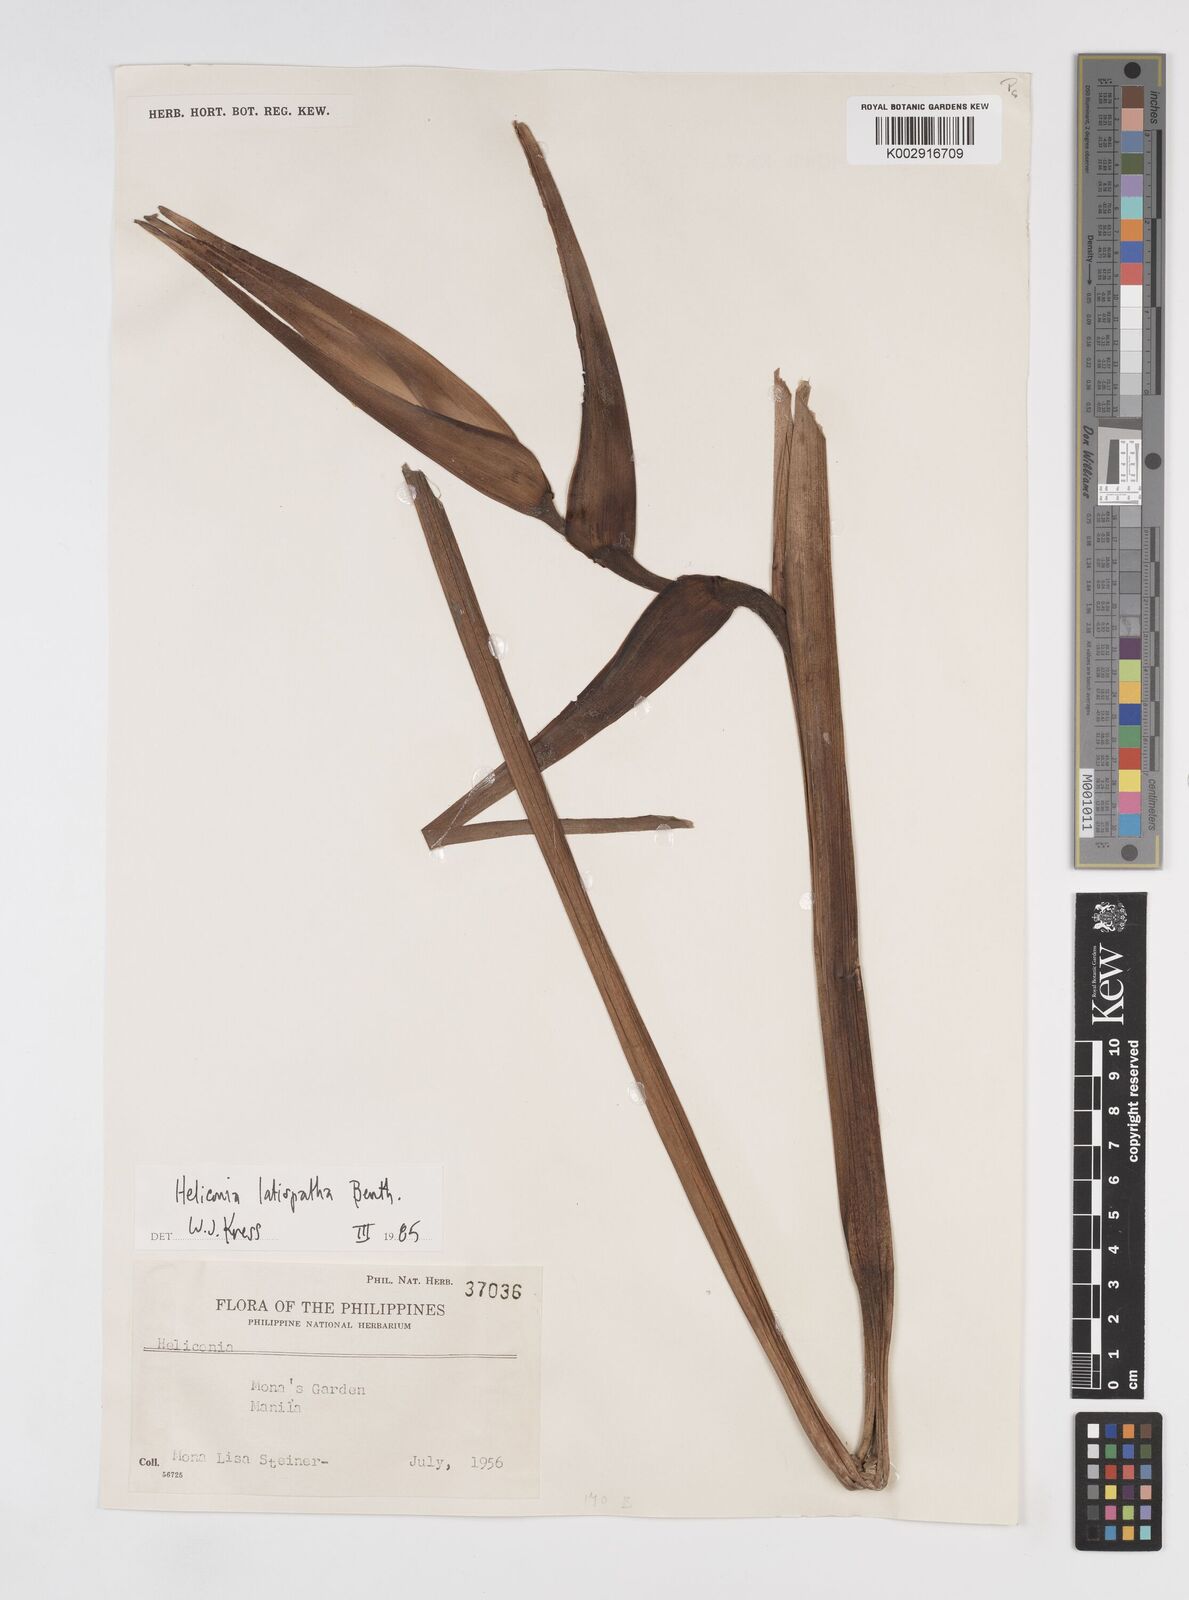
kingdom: Plantae
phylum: Tracheophyta
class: Liliopsida
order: Zingiberales
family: Heliconiaceae
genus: Heliconia
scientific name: Heliconia latispatha
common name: Expanded lobsterclaw
